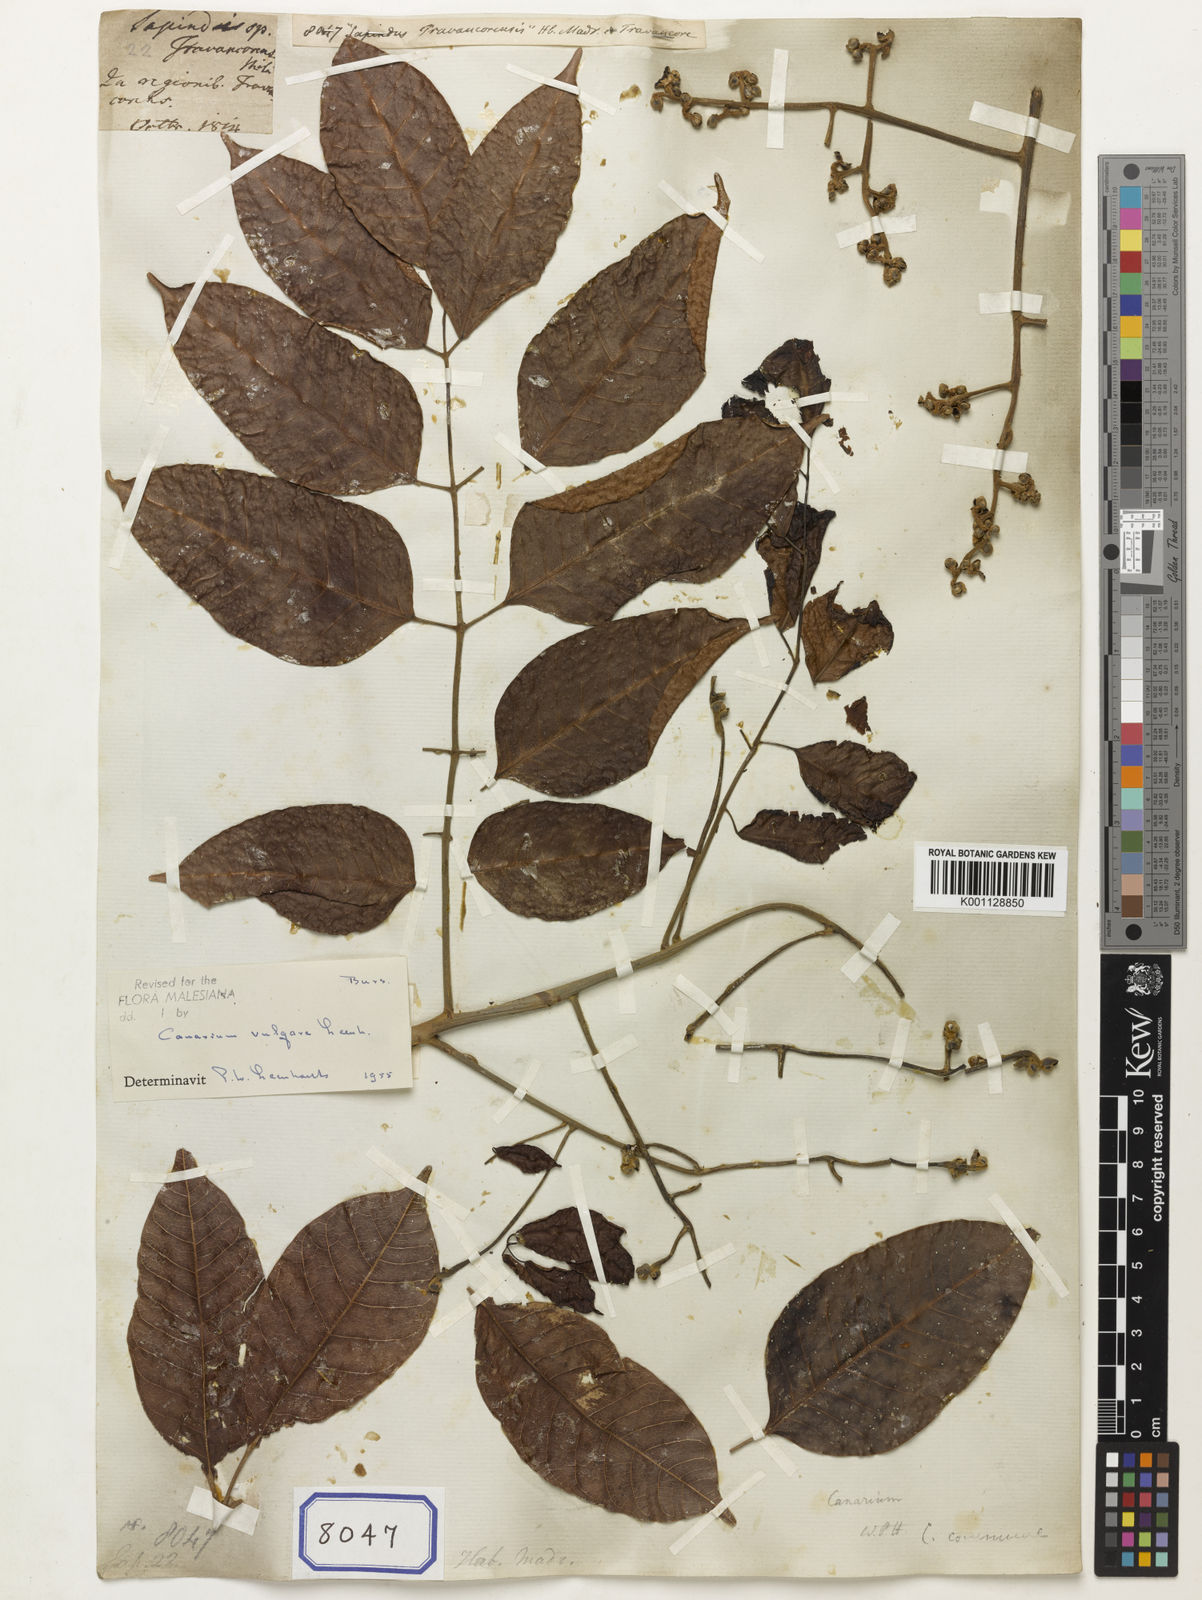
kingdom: Plantae
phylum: Tracheophyta
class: Magnoliopsida
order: Sapindales
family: Sapindaceae
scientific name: Sapindaceae
